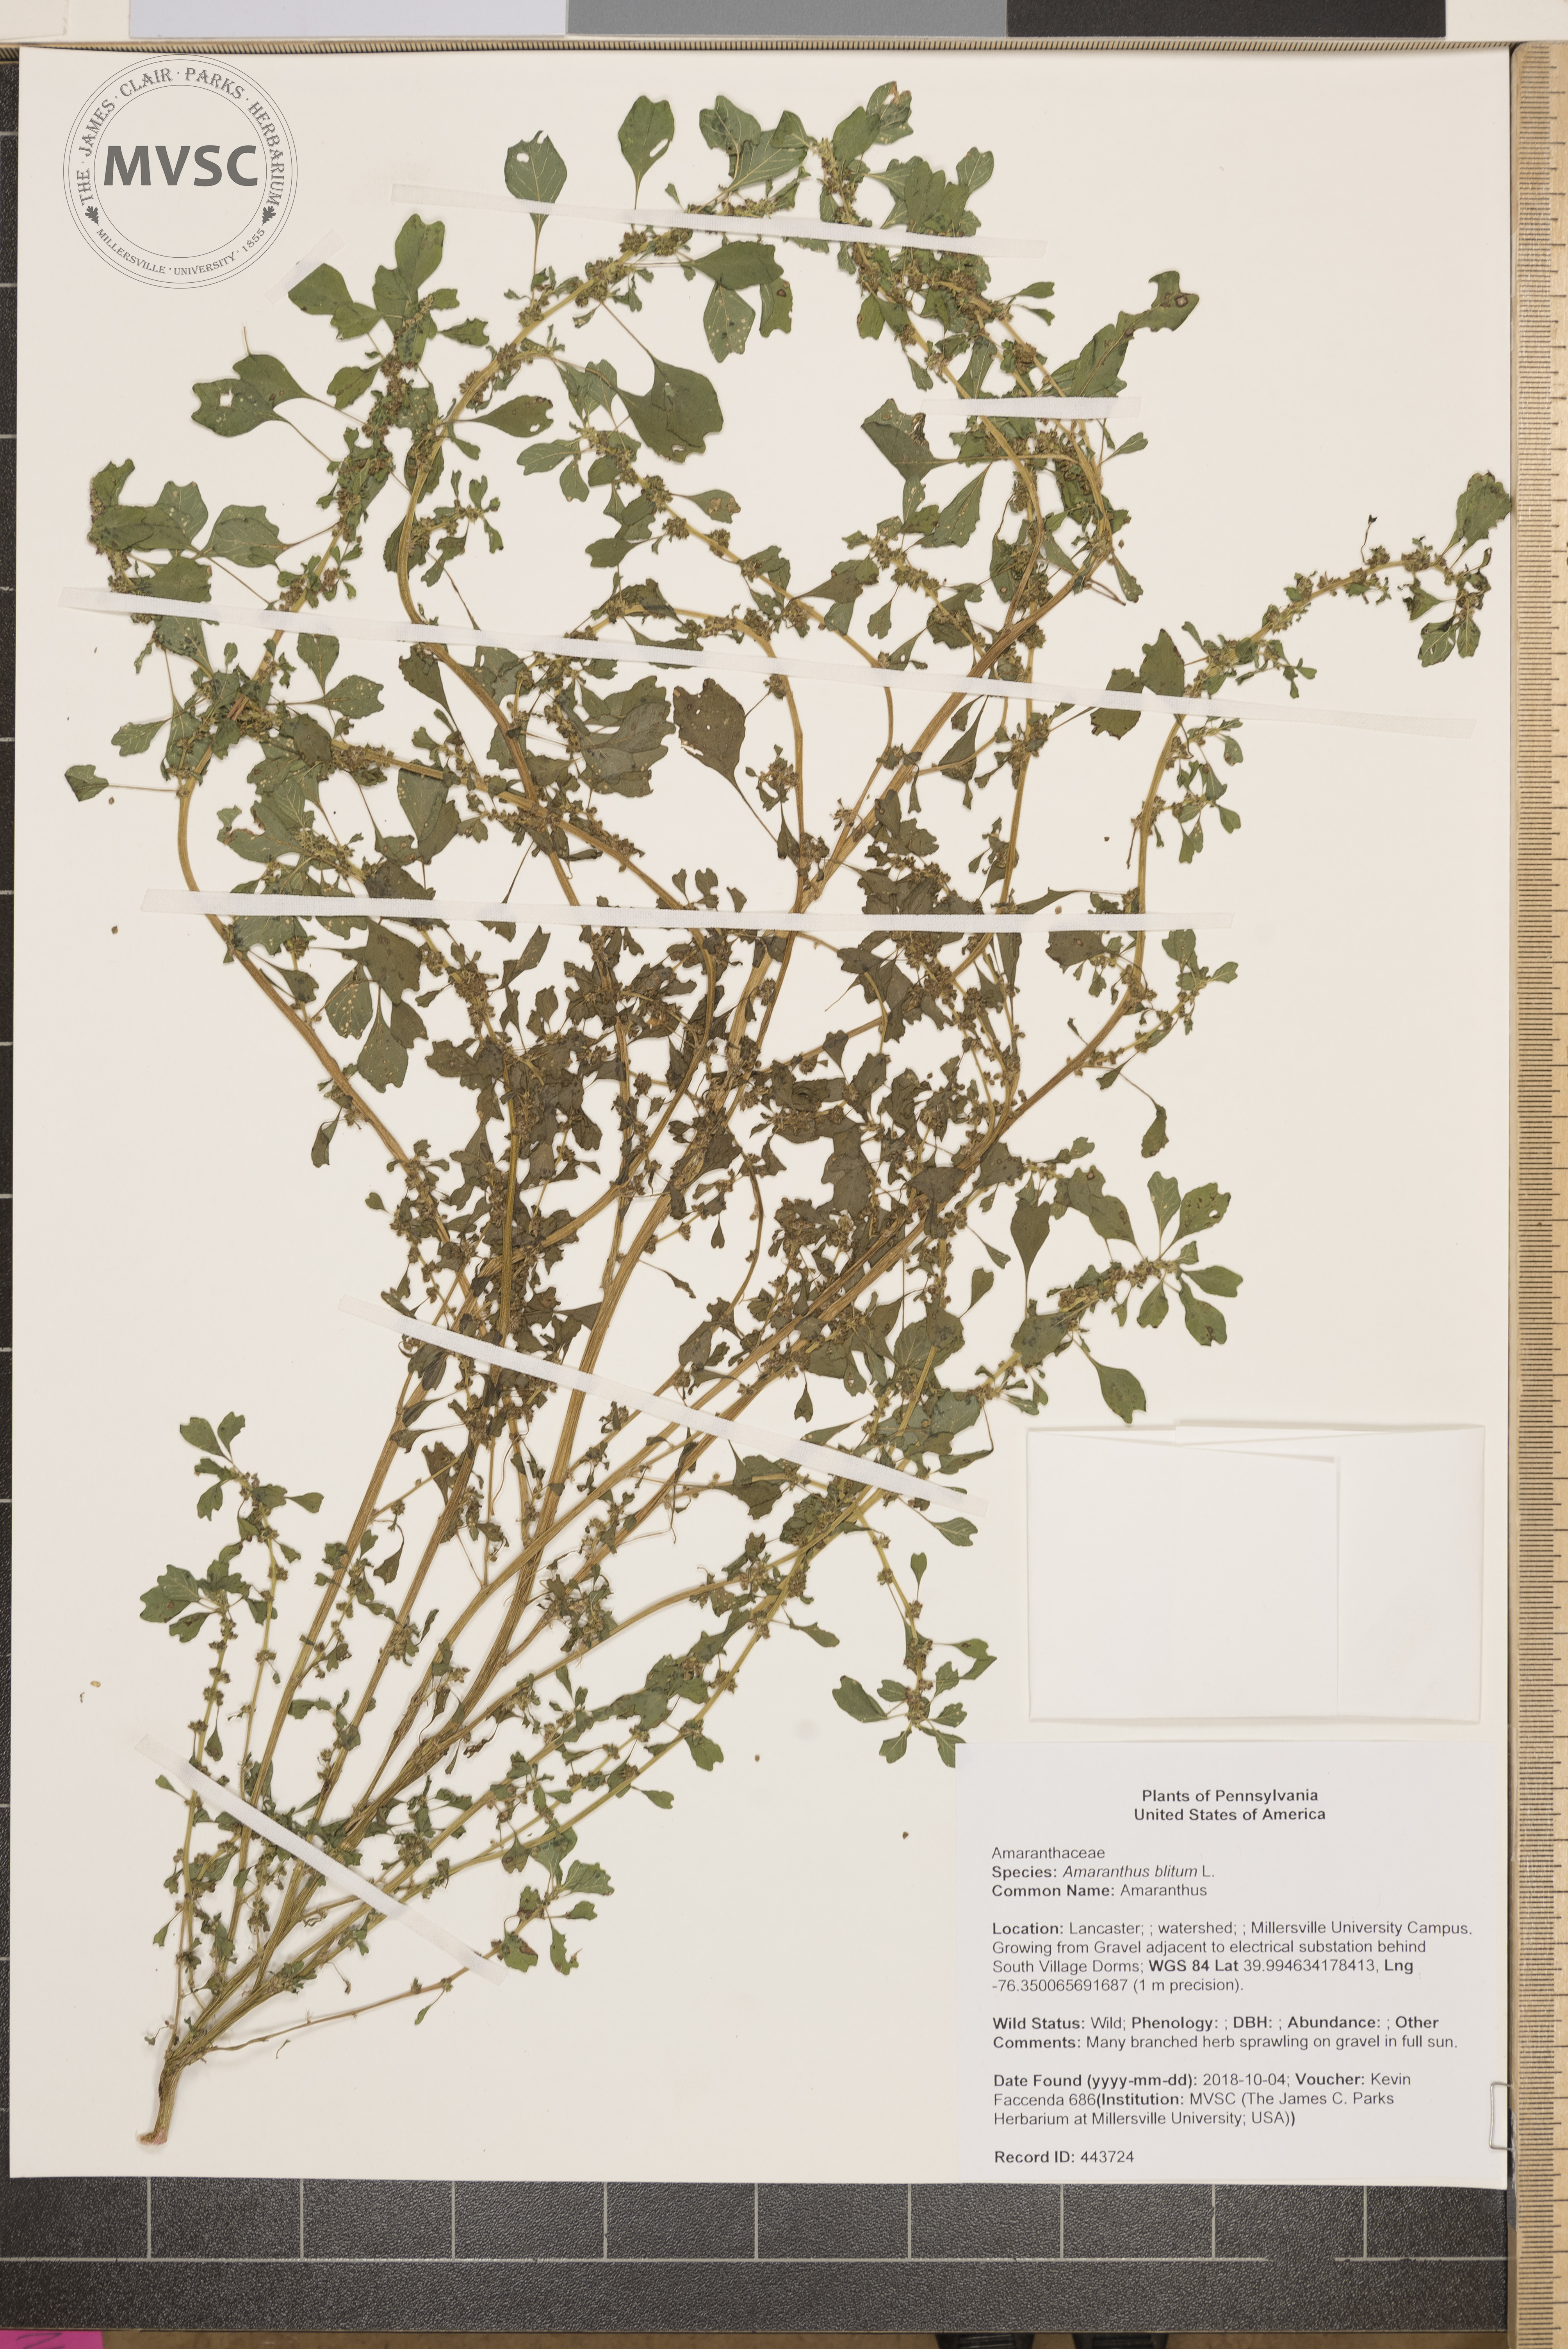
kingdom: Plantae
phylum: Tracheophyta
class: Magnoliopsida
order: Caryophyllales
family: Amaranthaceae
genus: Amaranthus
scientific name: Amaranthus blitum
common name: Amaranthus
